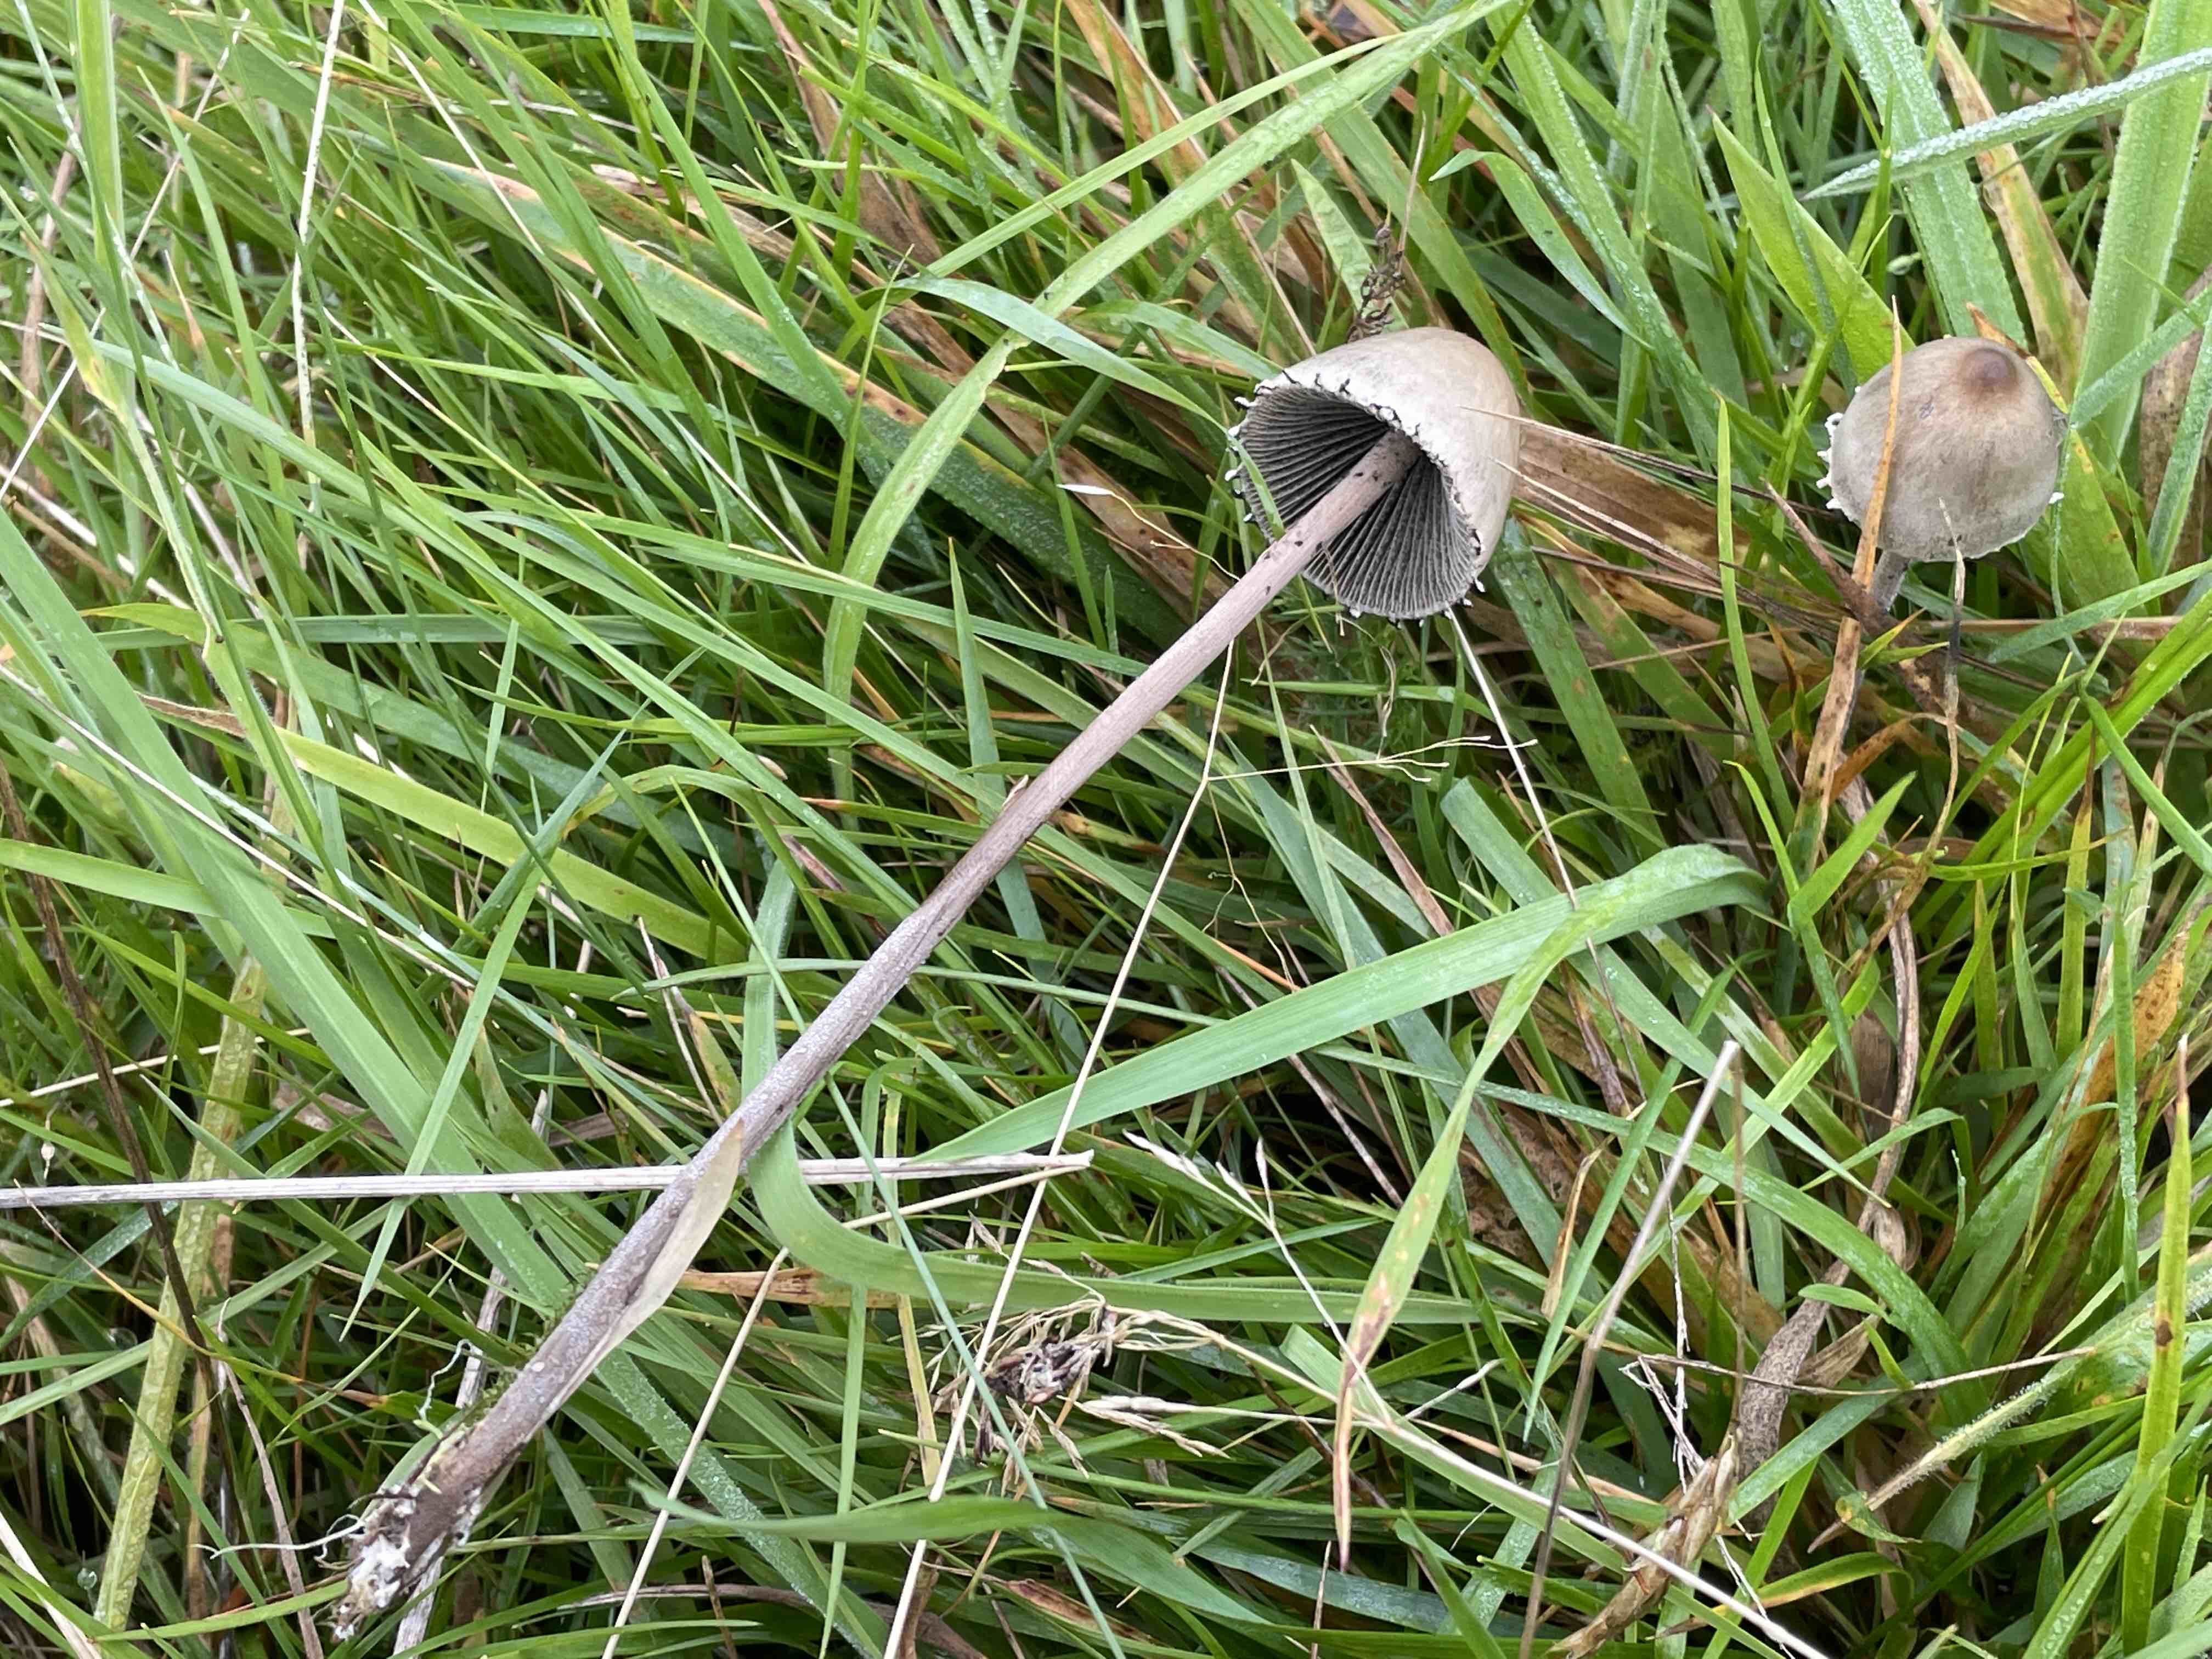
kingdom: Fungi
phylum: Basidiomycota
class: Agaricomycetes
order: Agaricales
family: Bolbitiaceae
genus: Panaeolus
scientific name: Panaeolus papilionaceus
